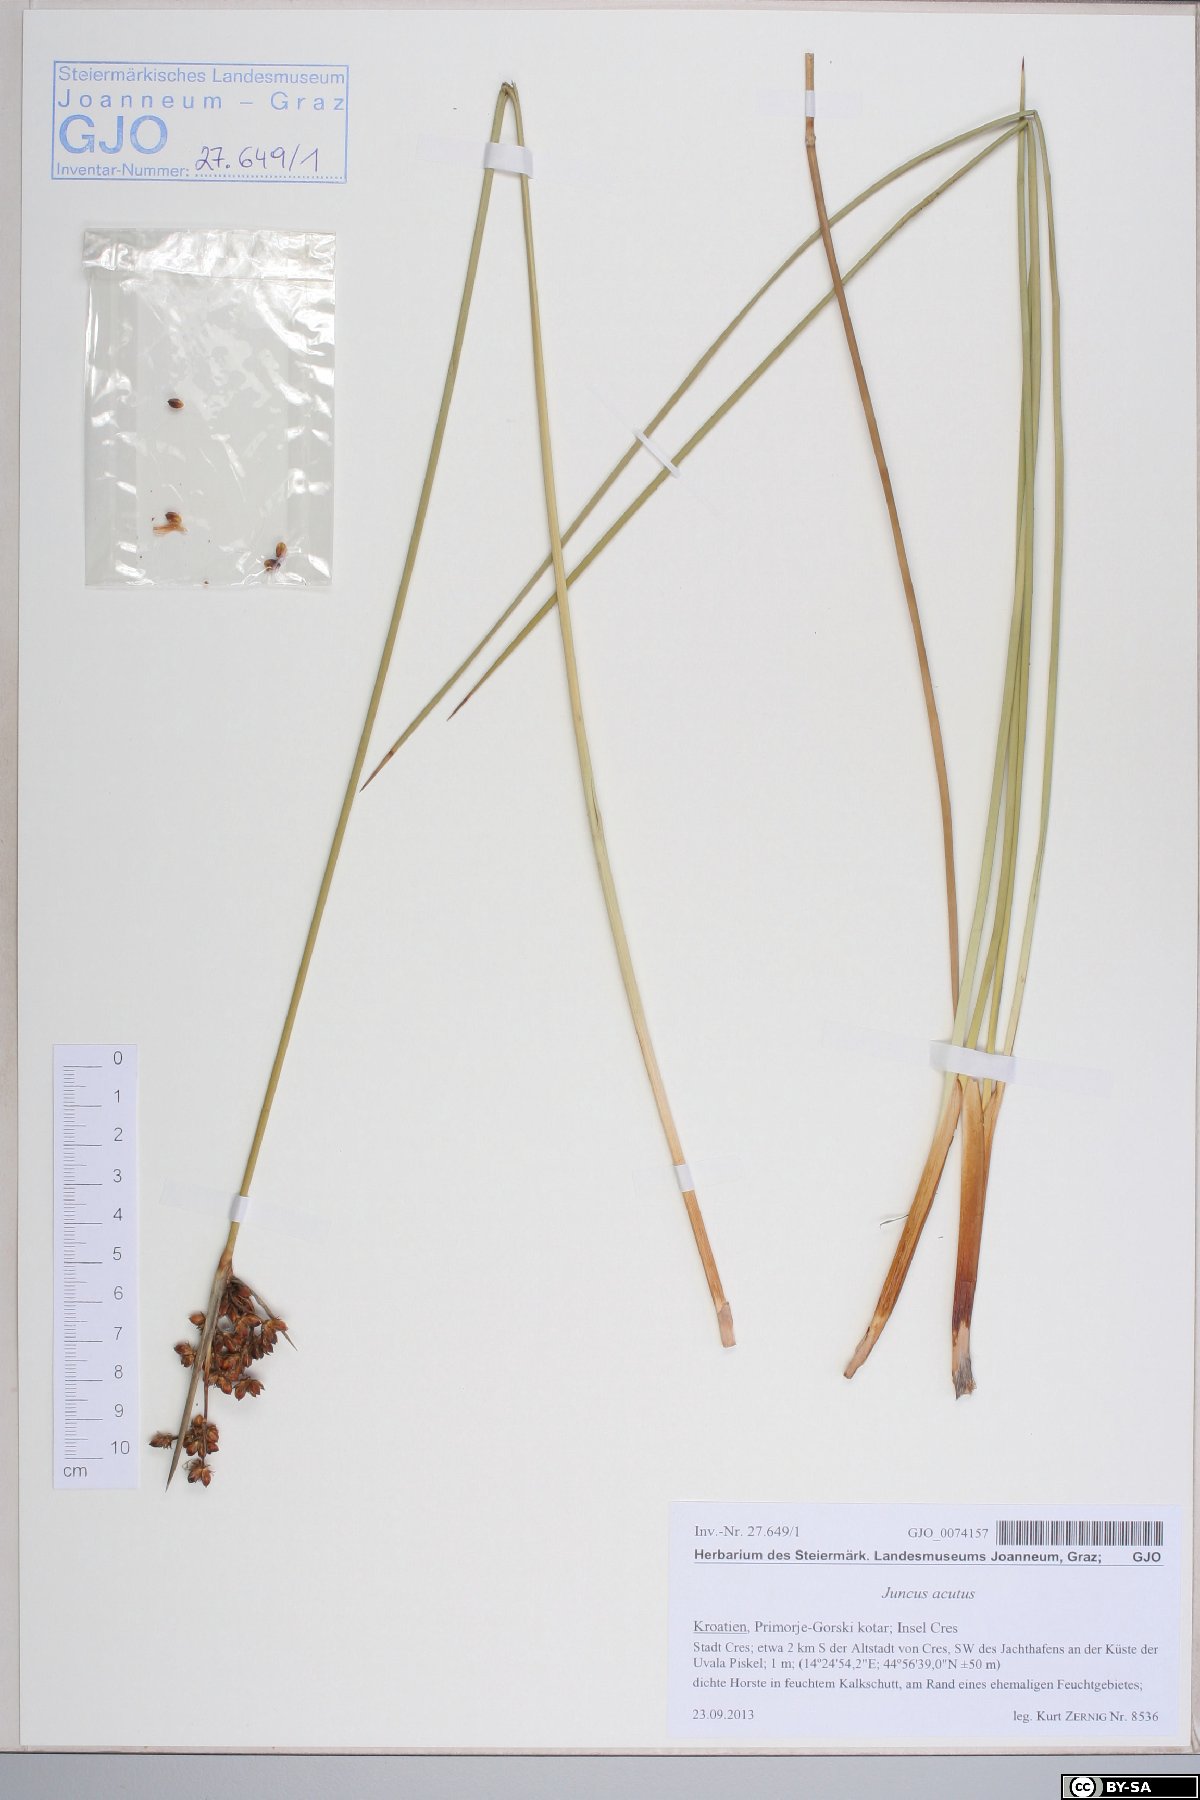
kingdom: Plantae
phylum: Tracheophyta
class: Liliopsida
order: Poales
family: Juncaceae
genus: Juncus
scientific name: Juncus acutus
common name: Sharp rush
